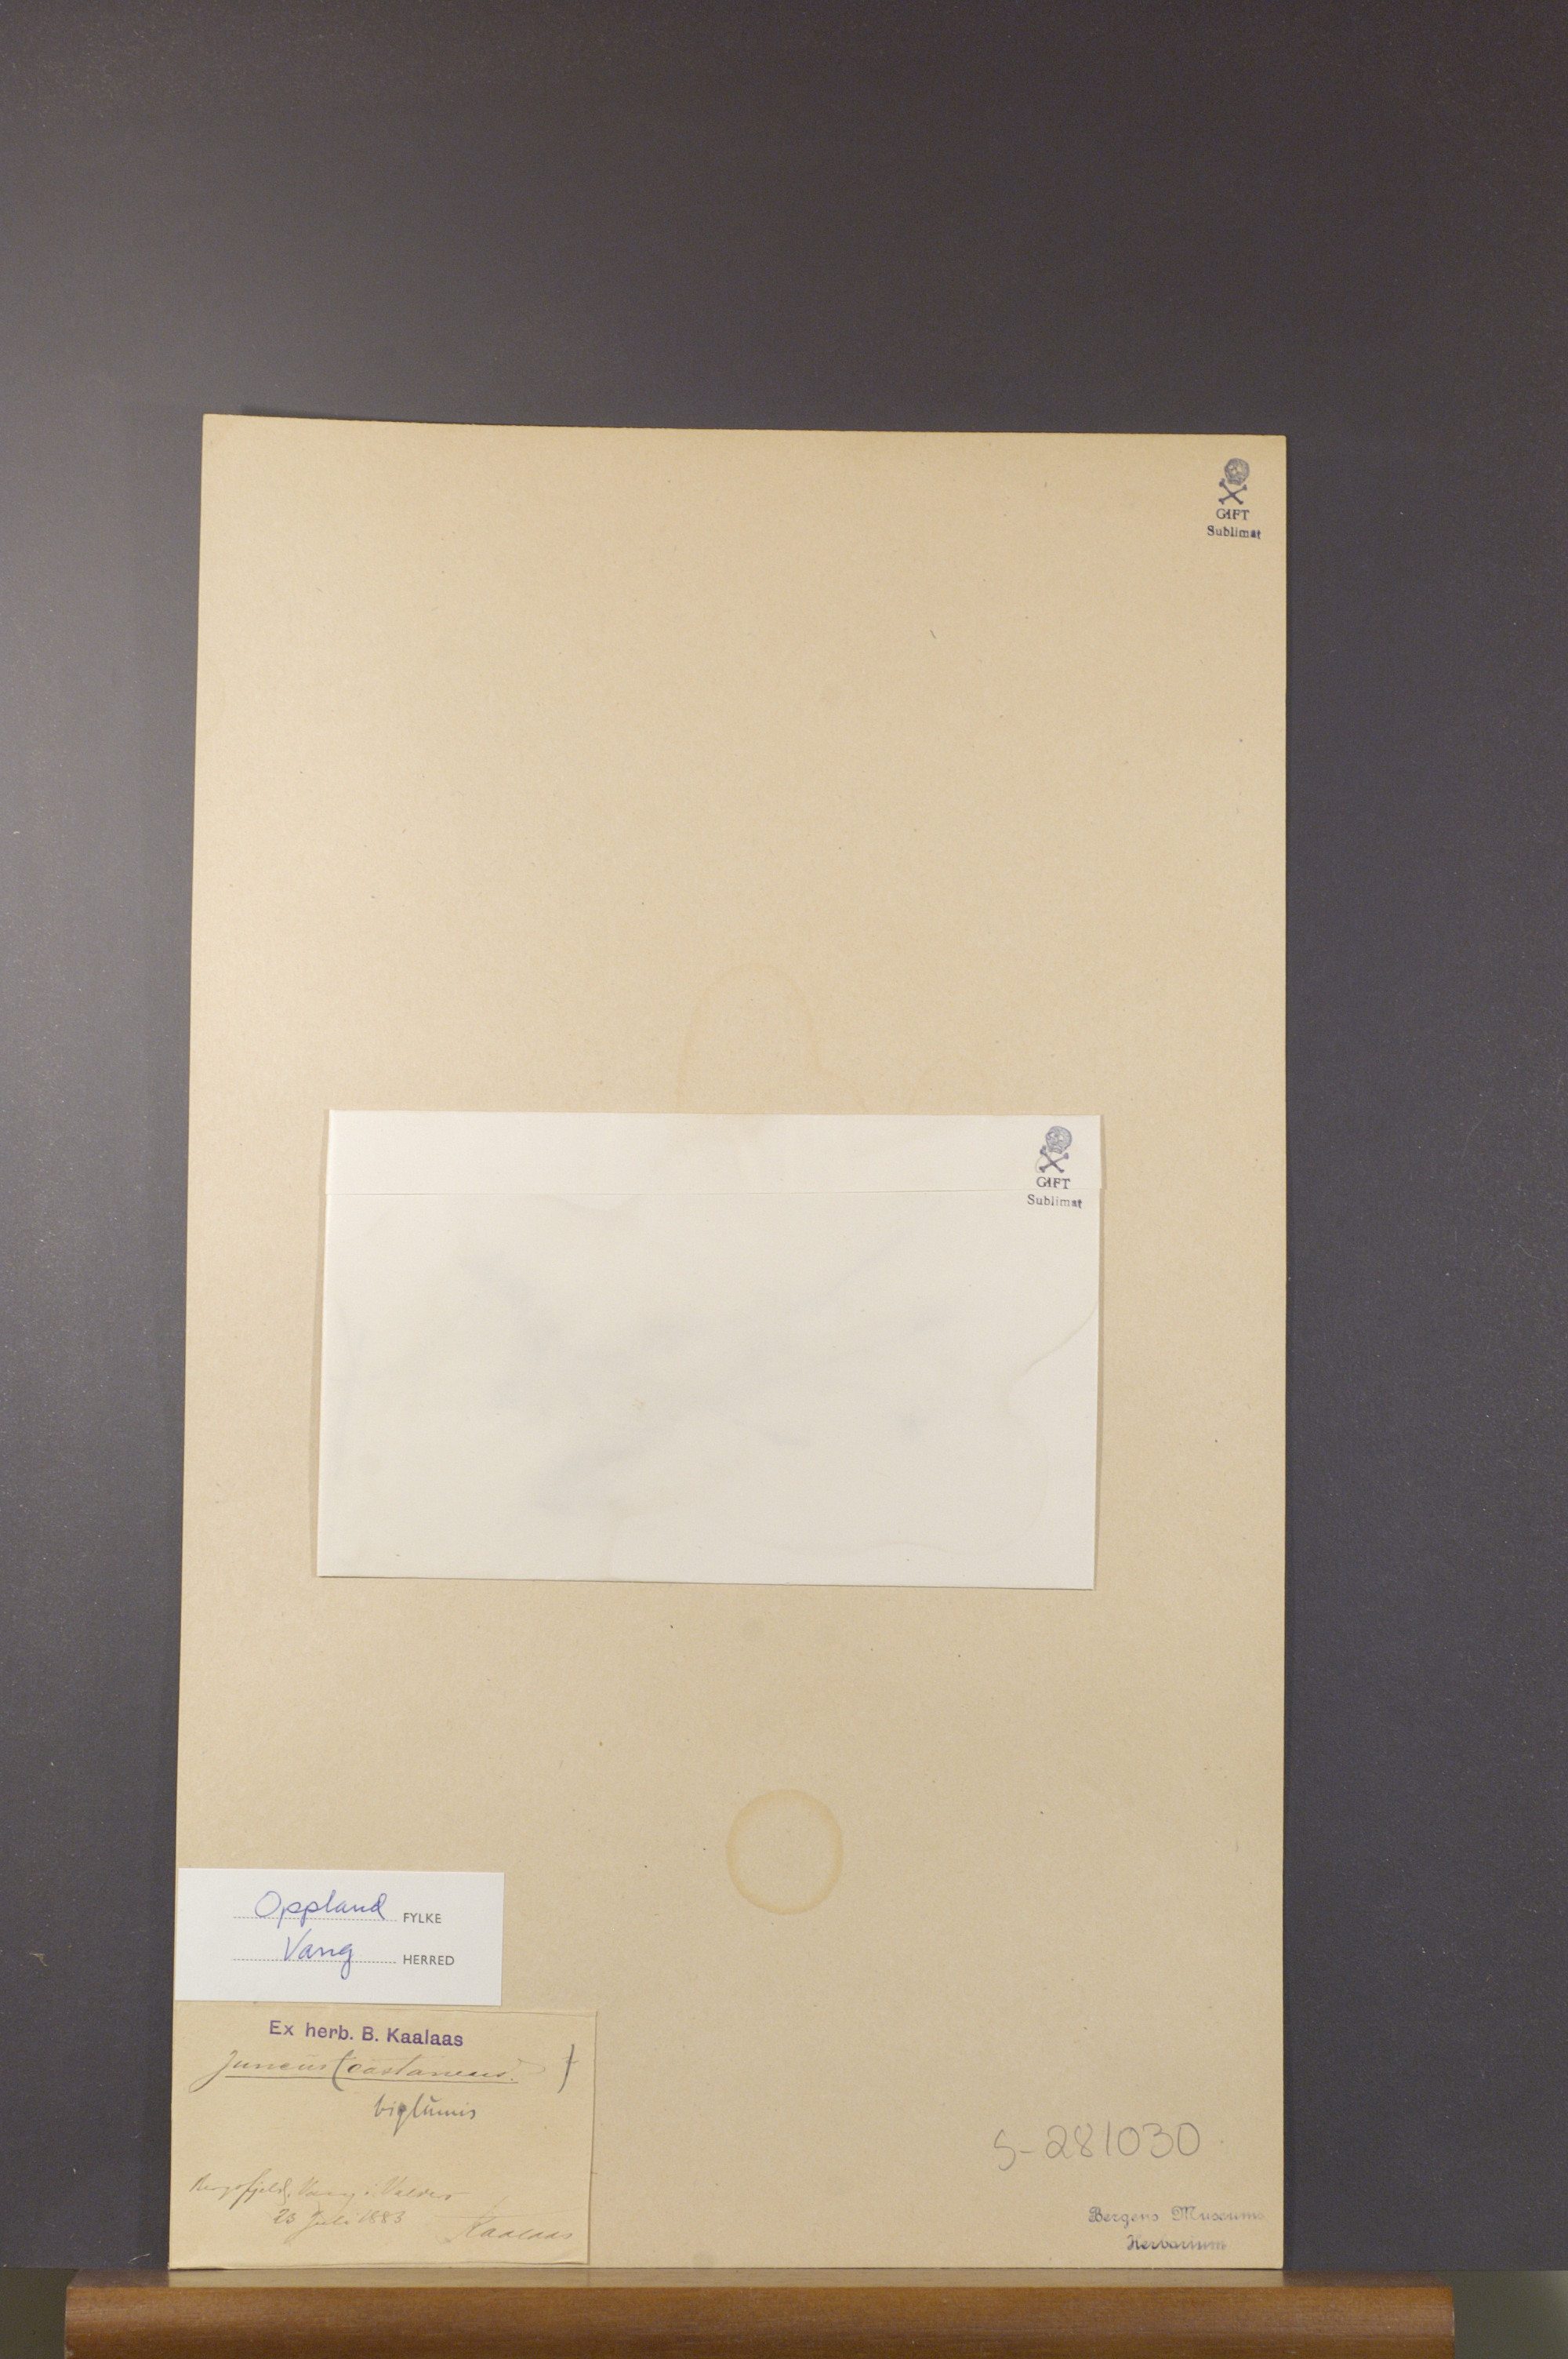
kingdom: Plantae
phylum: Tracheophyta
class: Liliopsida
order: Poales
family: Juncaceae
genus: Juncus
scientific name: Juncus biglumis
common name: Two-flowered rush
